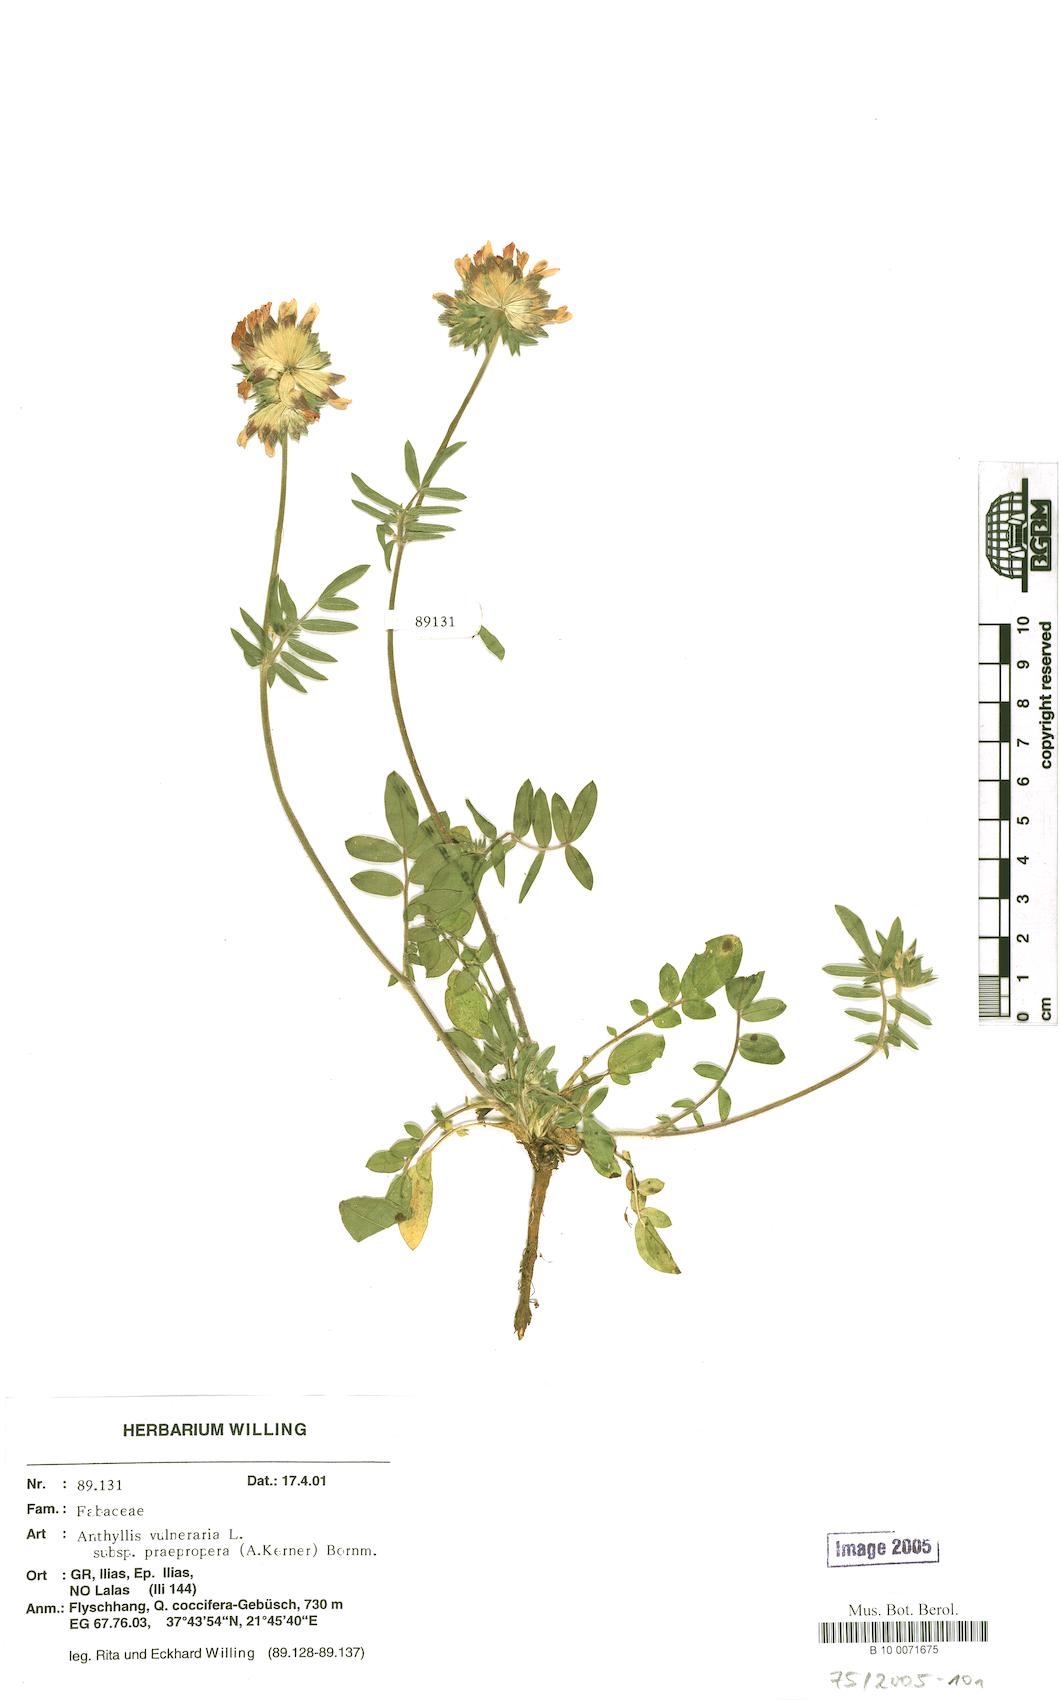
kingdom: Plantae
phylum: Tracheophyta
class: Magnoliopsida
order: Fabales
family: Fabaceae
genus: Anthyllis
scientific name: Anthyllis vulneraria
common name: Kidney vetch
